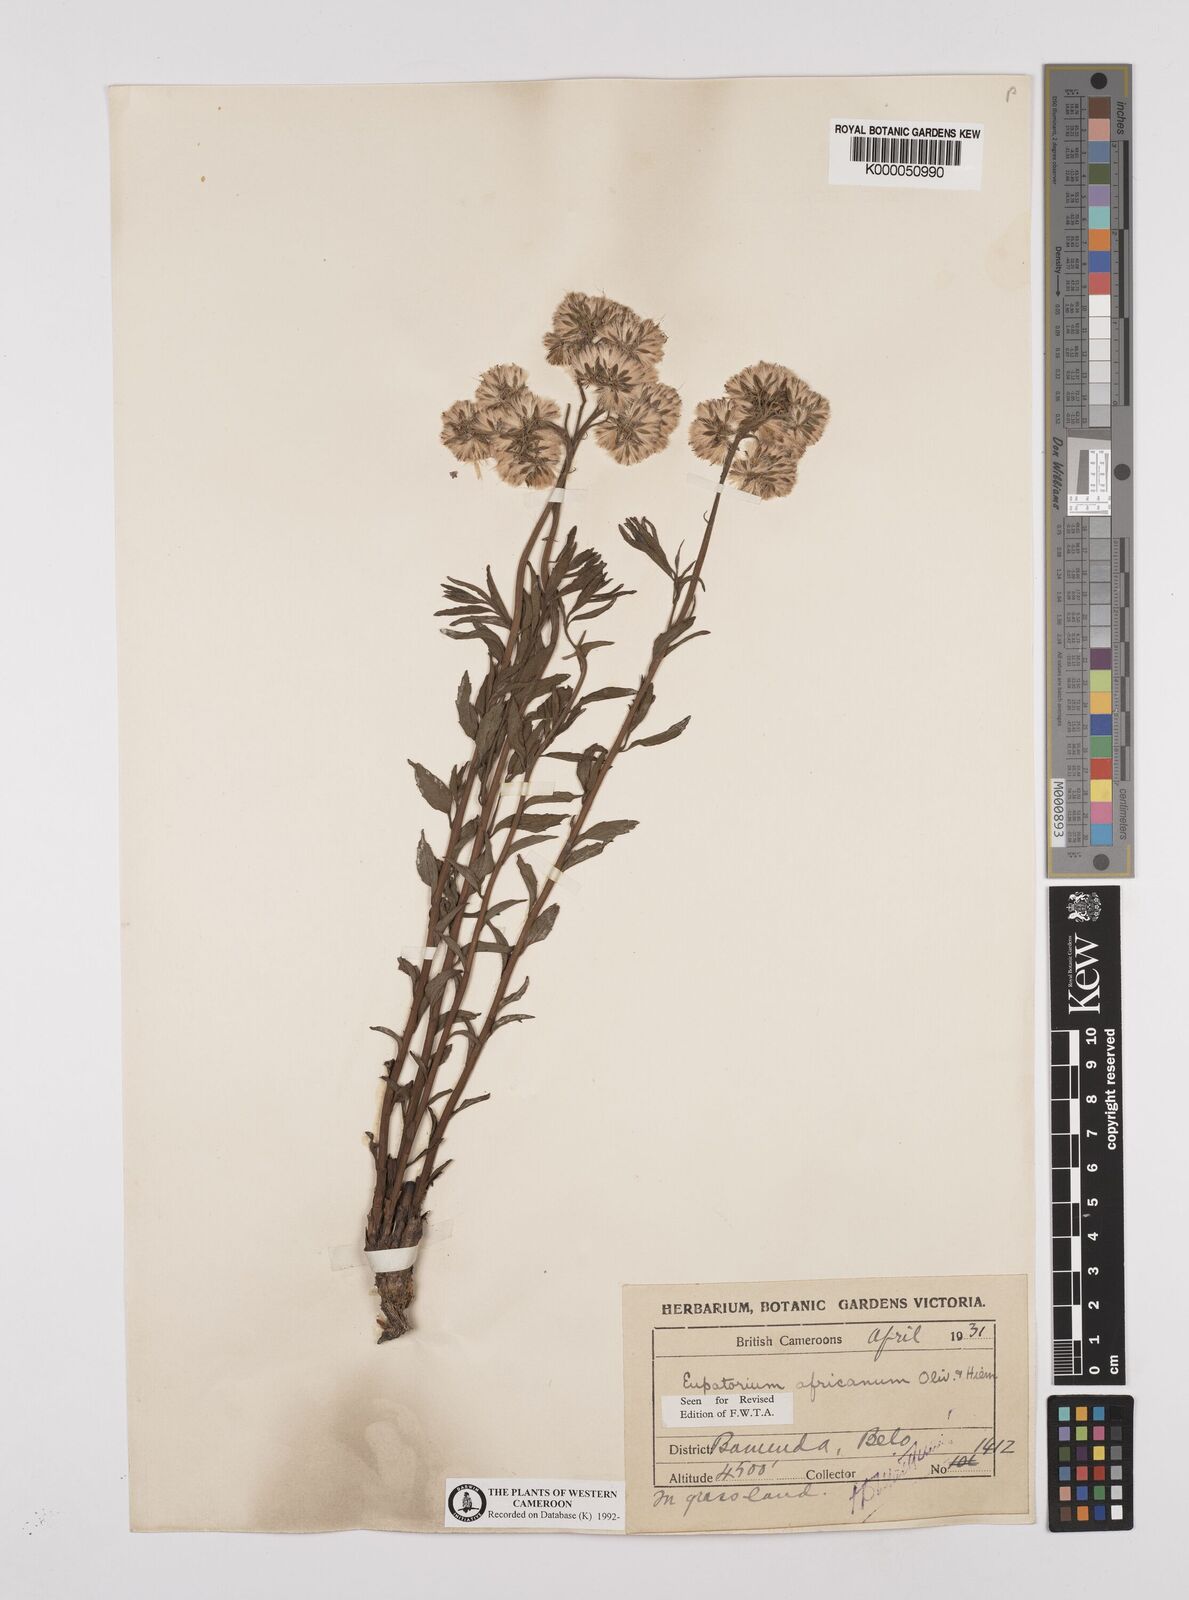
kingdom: Plantae
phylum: Tracheophyta
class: Magnoliopsida
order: Asterales
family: Asteraceae
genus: Stomatanthes
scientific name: Stomatanthes africanus
